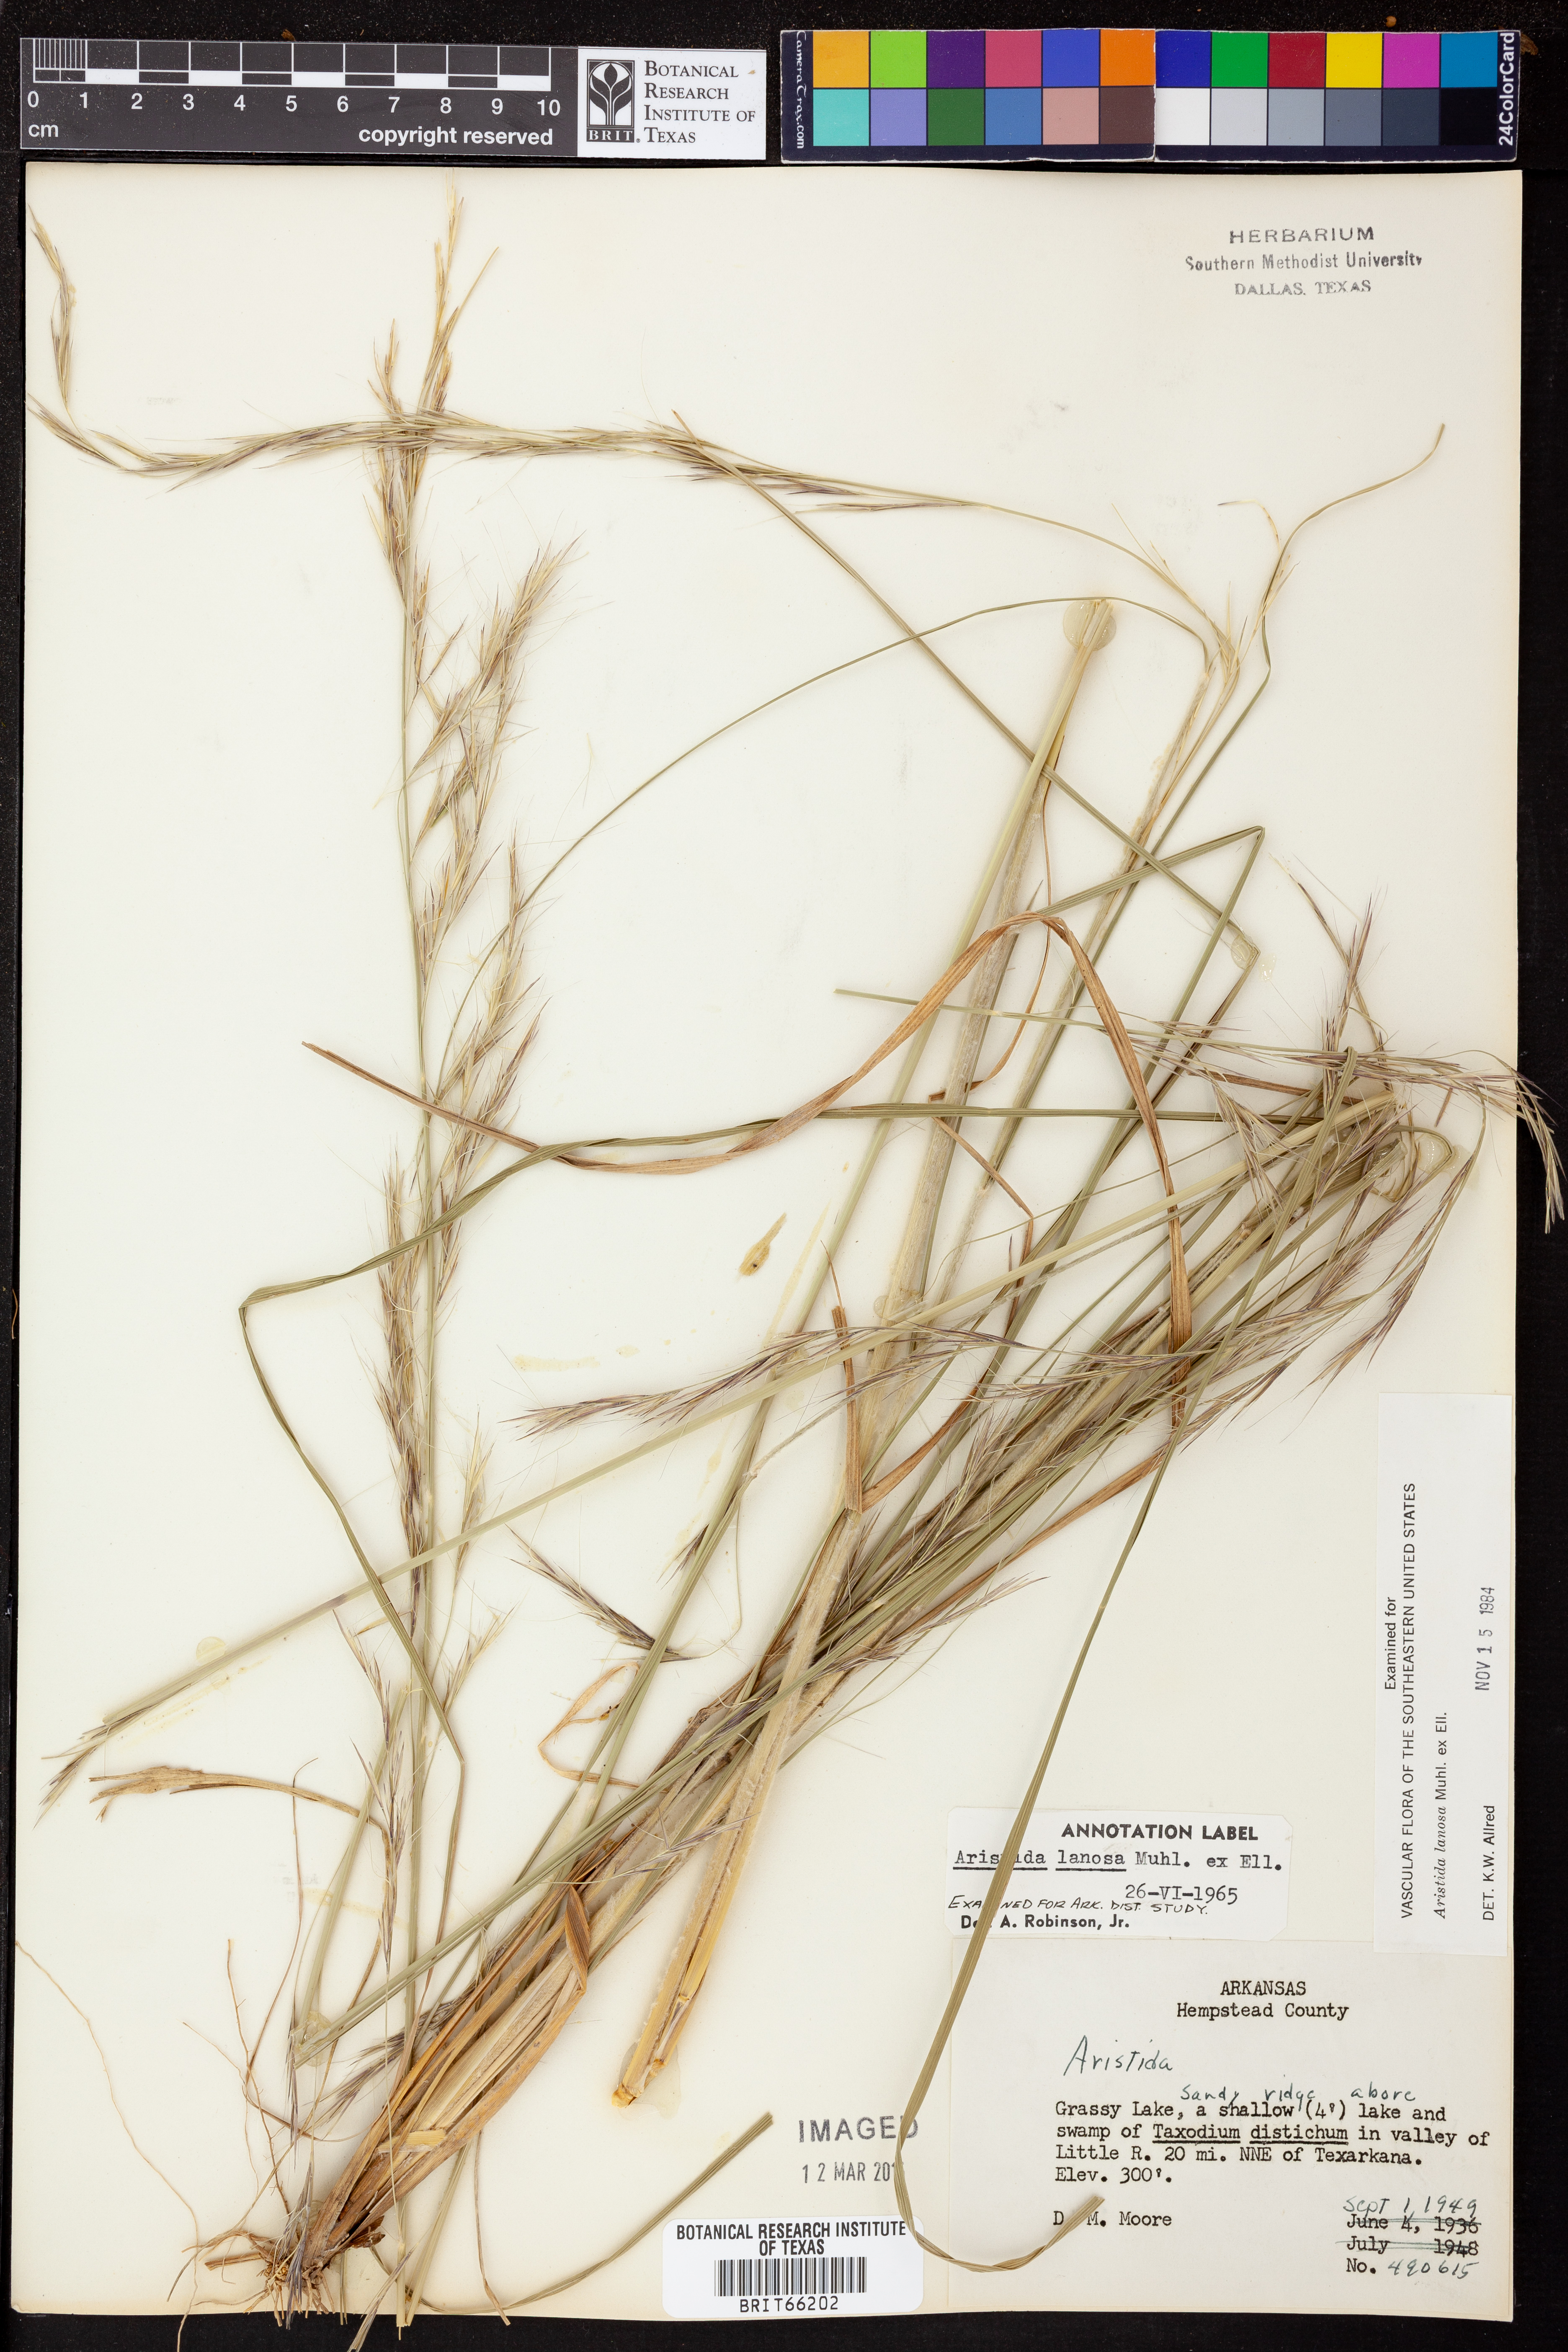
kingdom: Plantae
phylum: Tracheophyta
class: Liliopsida
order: Poales
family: Poaceae
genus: Aristida
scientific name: Aristida lanosa
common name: Woolly three-awn
